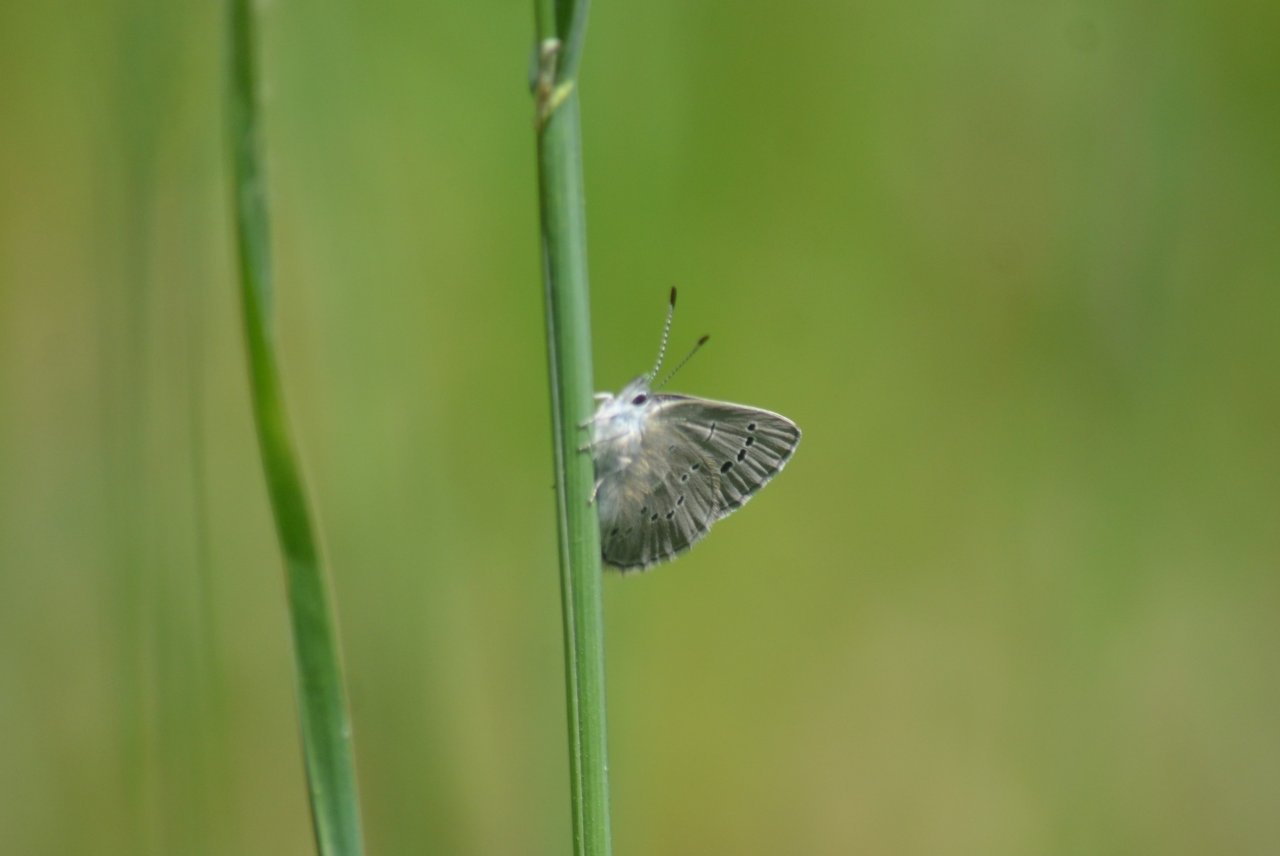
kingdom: Animalia
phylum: Arthropoda
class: Insecta
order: Lepidoptera
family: Lycaenidae
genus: Glaucopsyche
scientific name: Glaucopsyche lygdamus
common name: Silvery Blue
